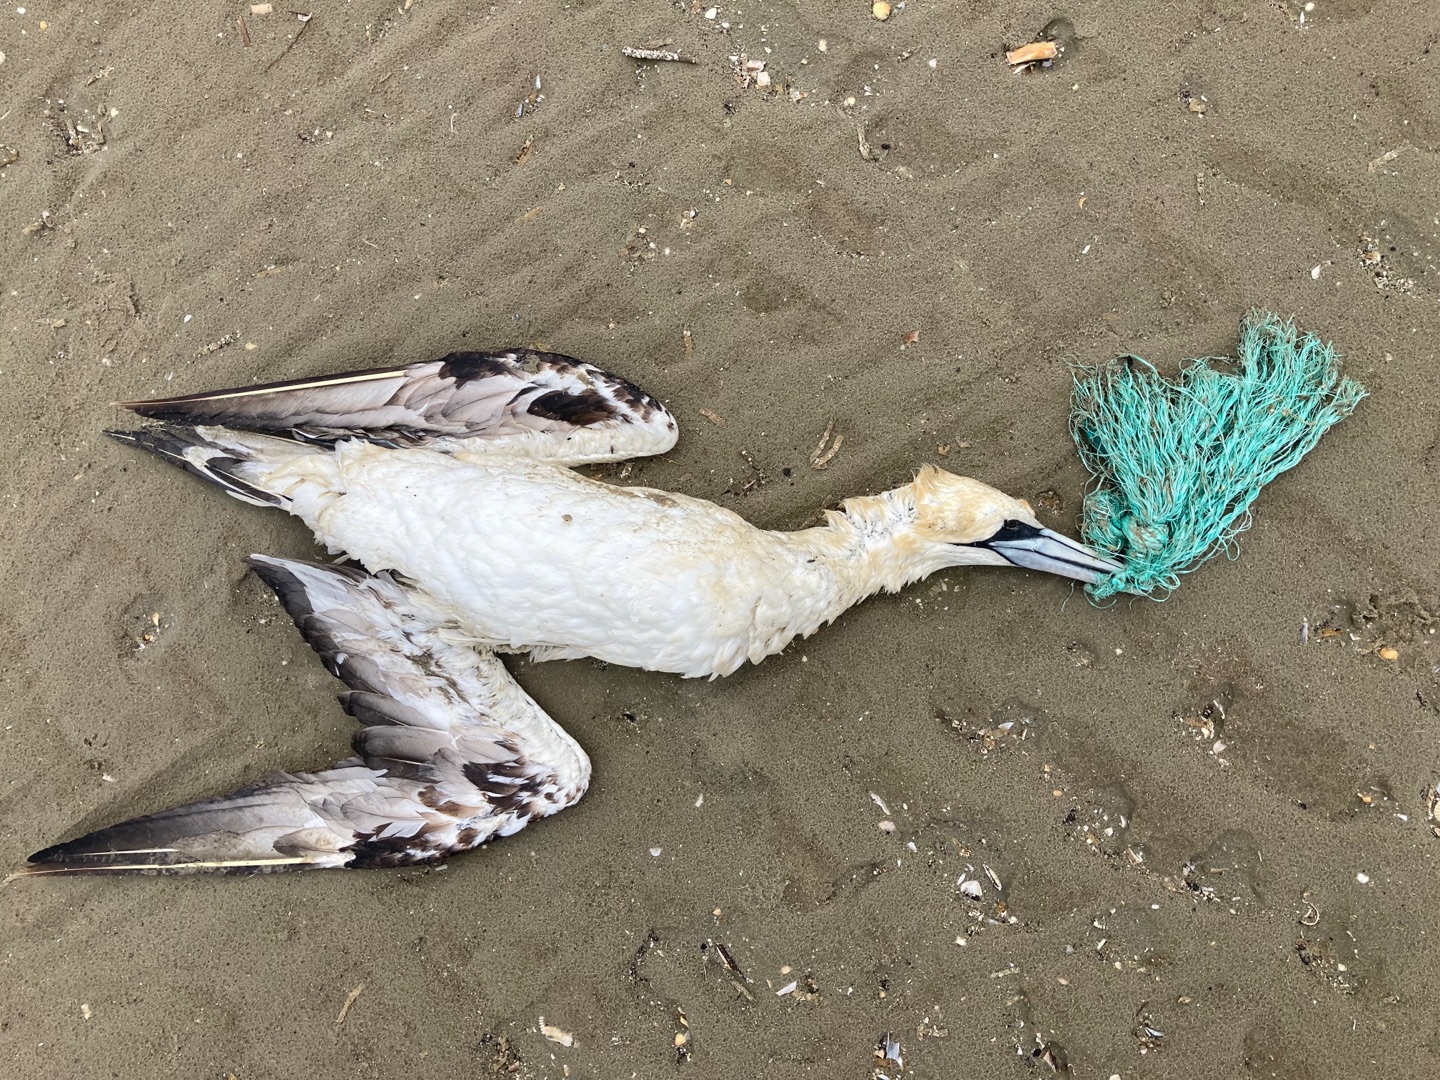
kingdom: Animalia
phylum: Chordata
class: Aves
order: Suliformes
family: Sulidae
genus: Morus
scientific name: Morus bassanus
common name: Sule
